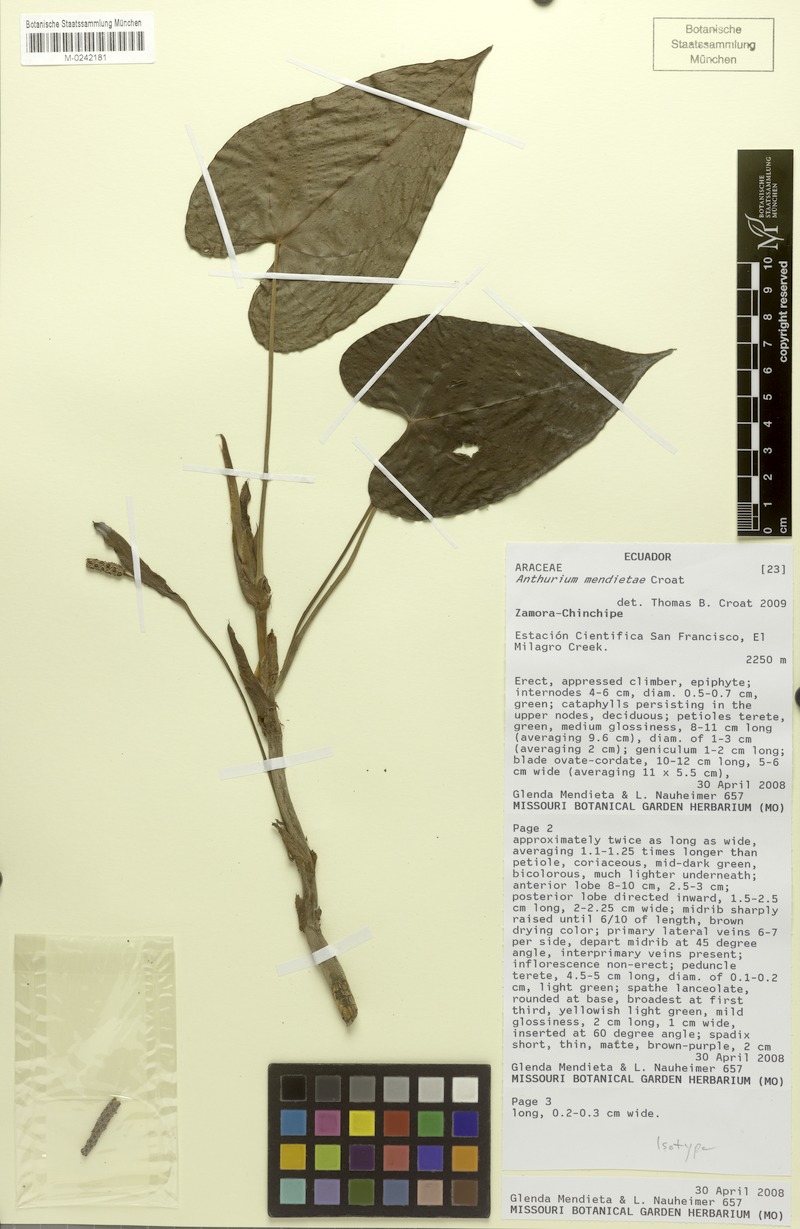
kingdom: Plantae
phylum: Tracheophyta
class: Liliopsida
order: Alismatales
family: Araceae
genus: Anthurium
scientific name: Anthurium mendietae
